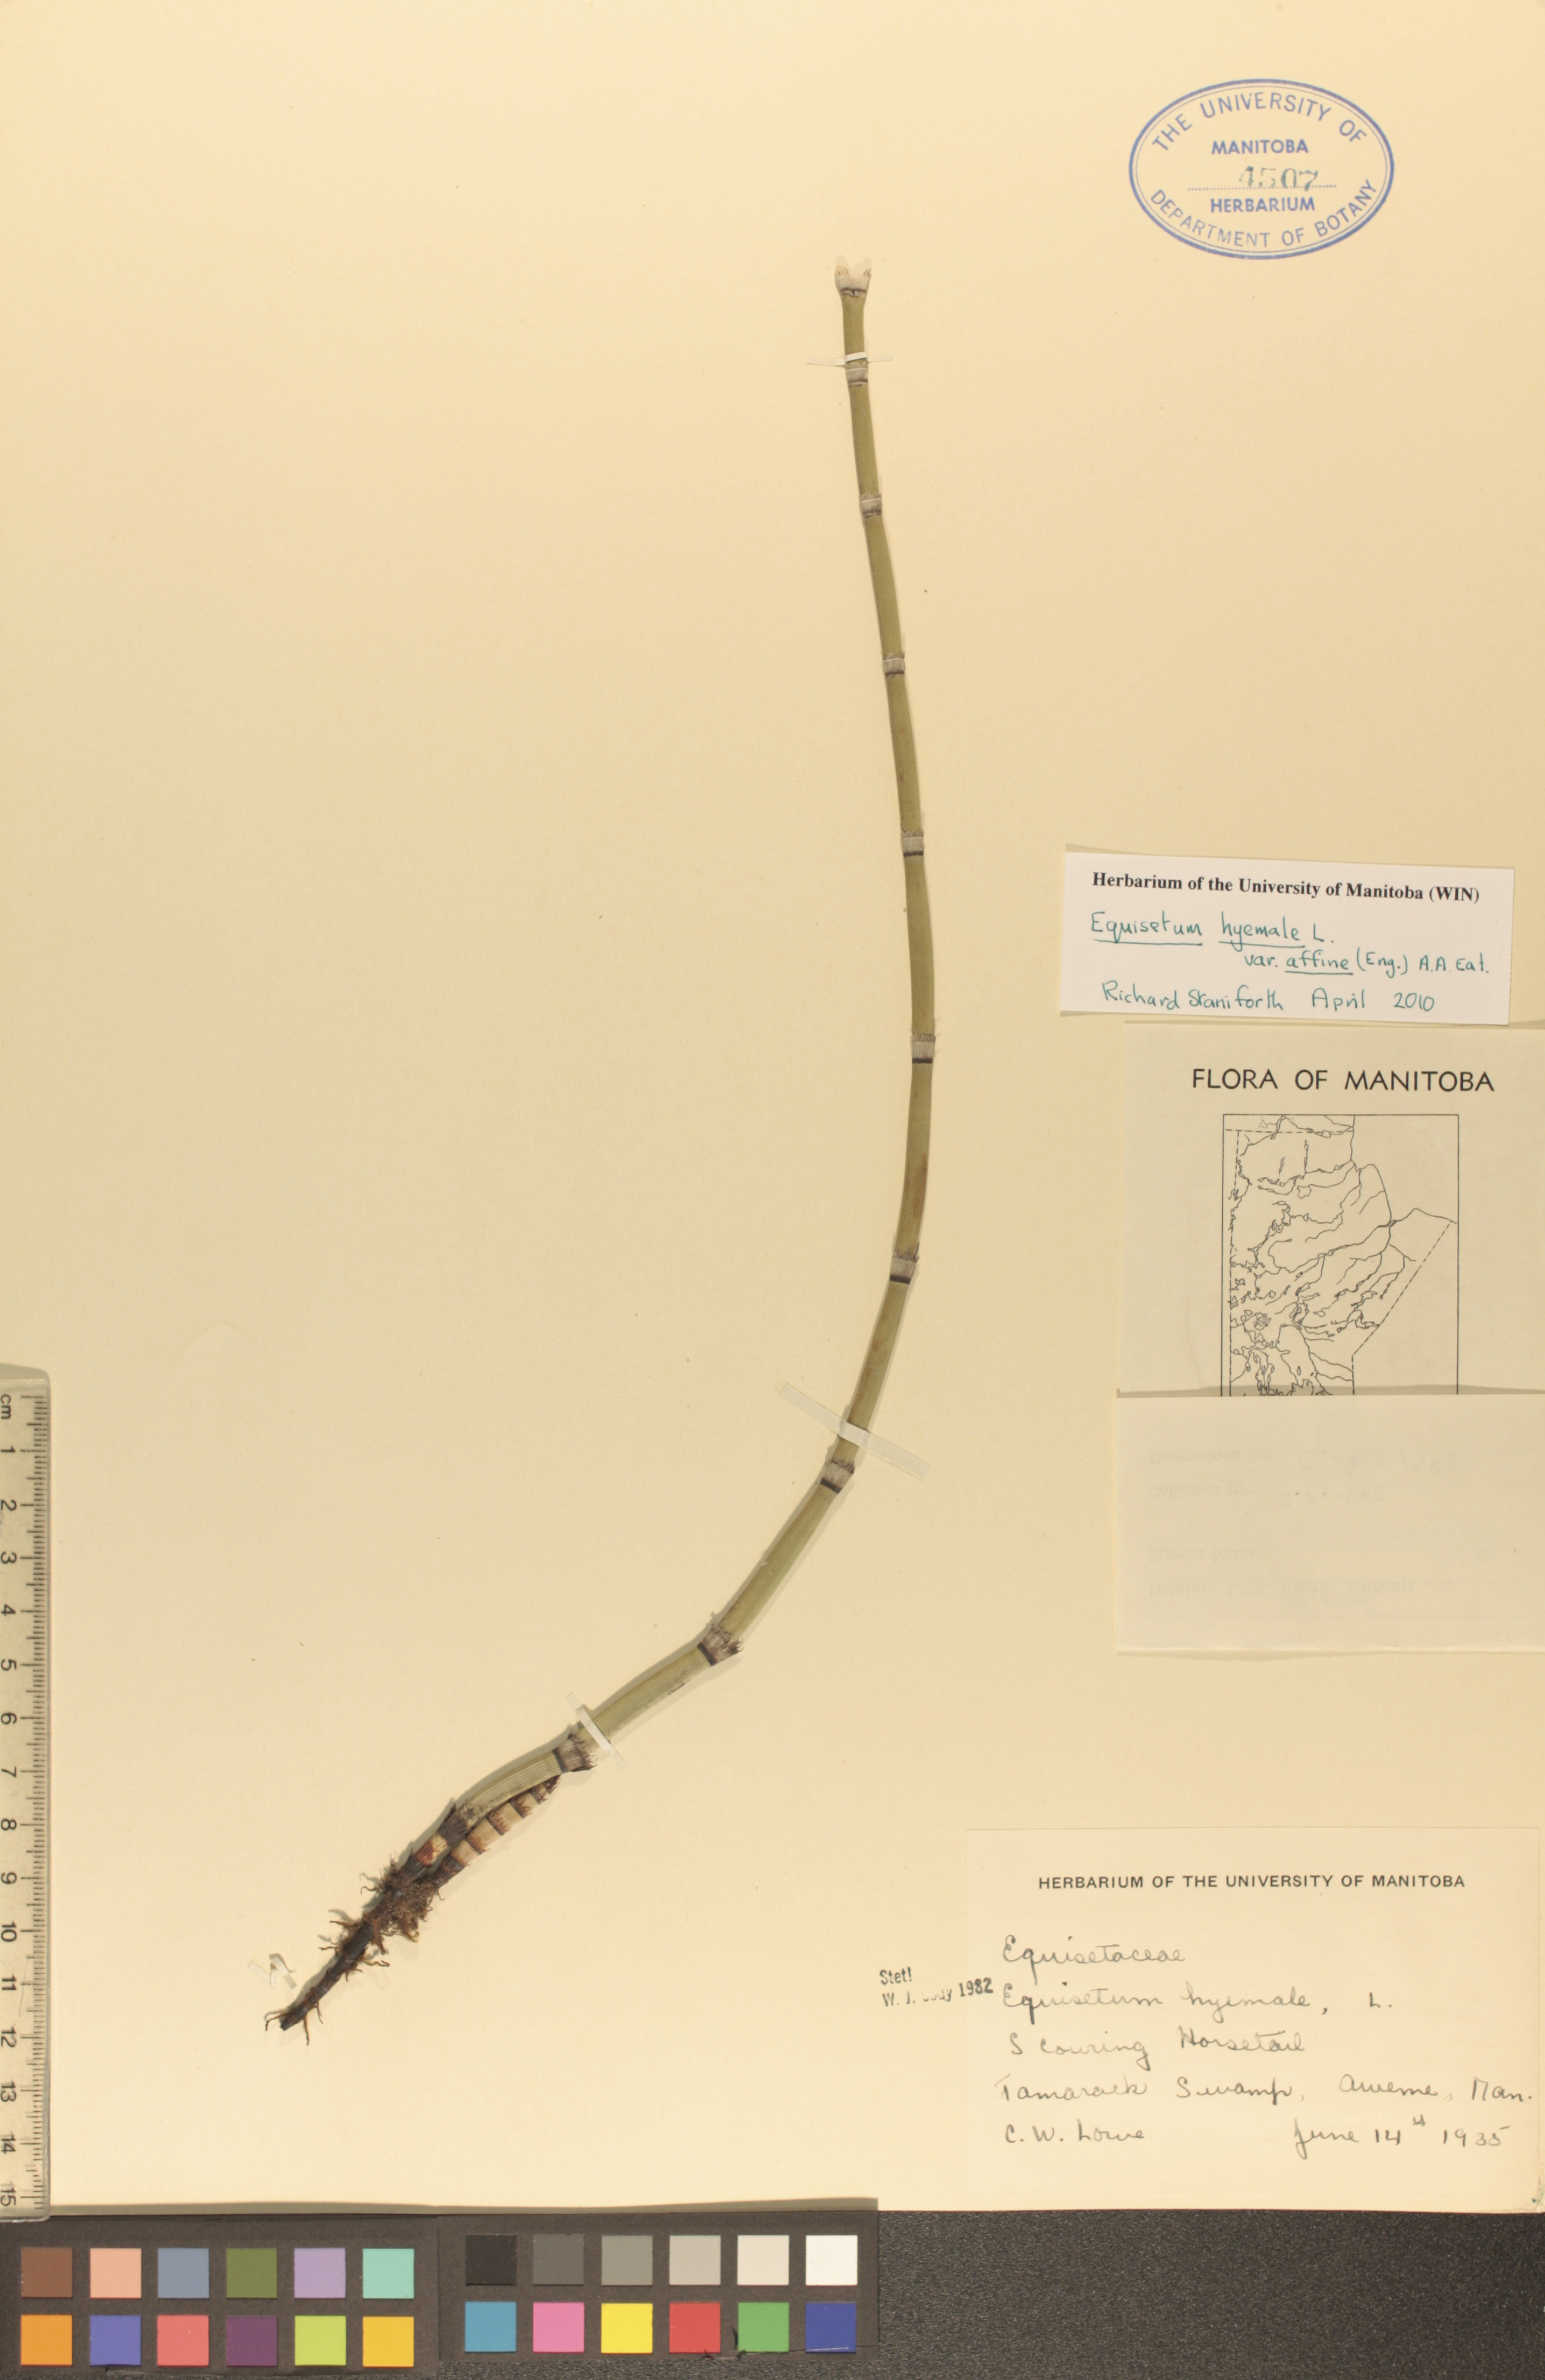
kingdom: Plantae
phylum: Tracheophyta
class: Polypodiopsida
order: Equisetales
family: Equisetaceae
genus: Equisetum
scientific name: Equisetum praealtum
